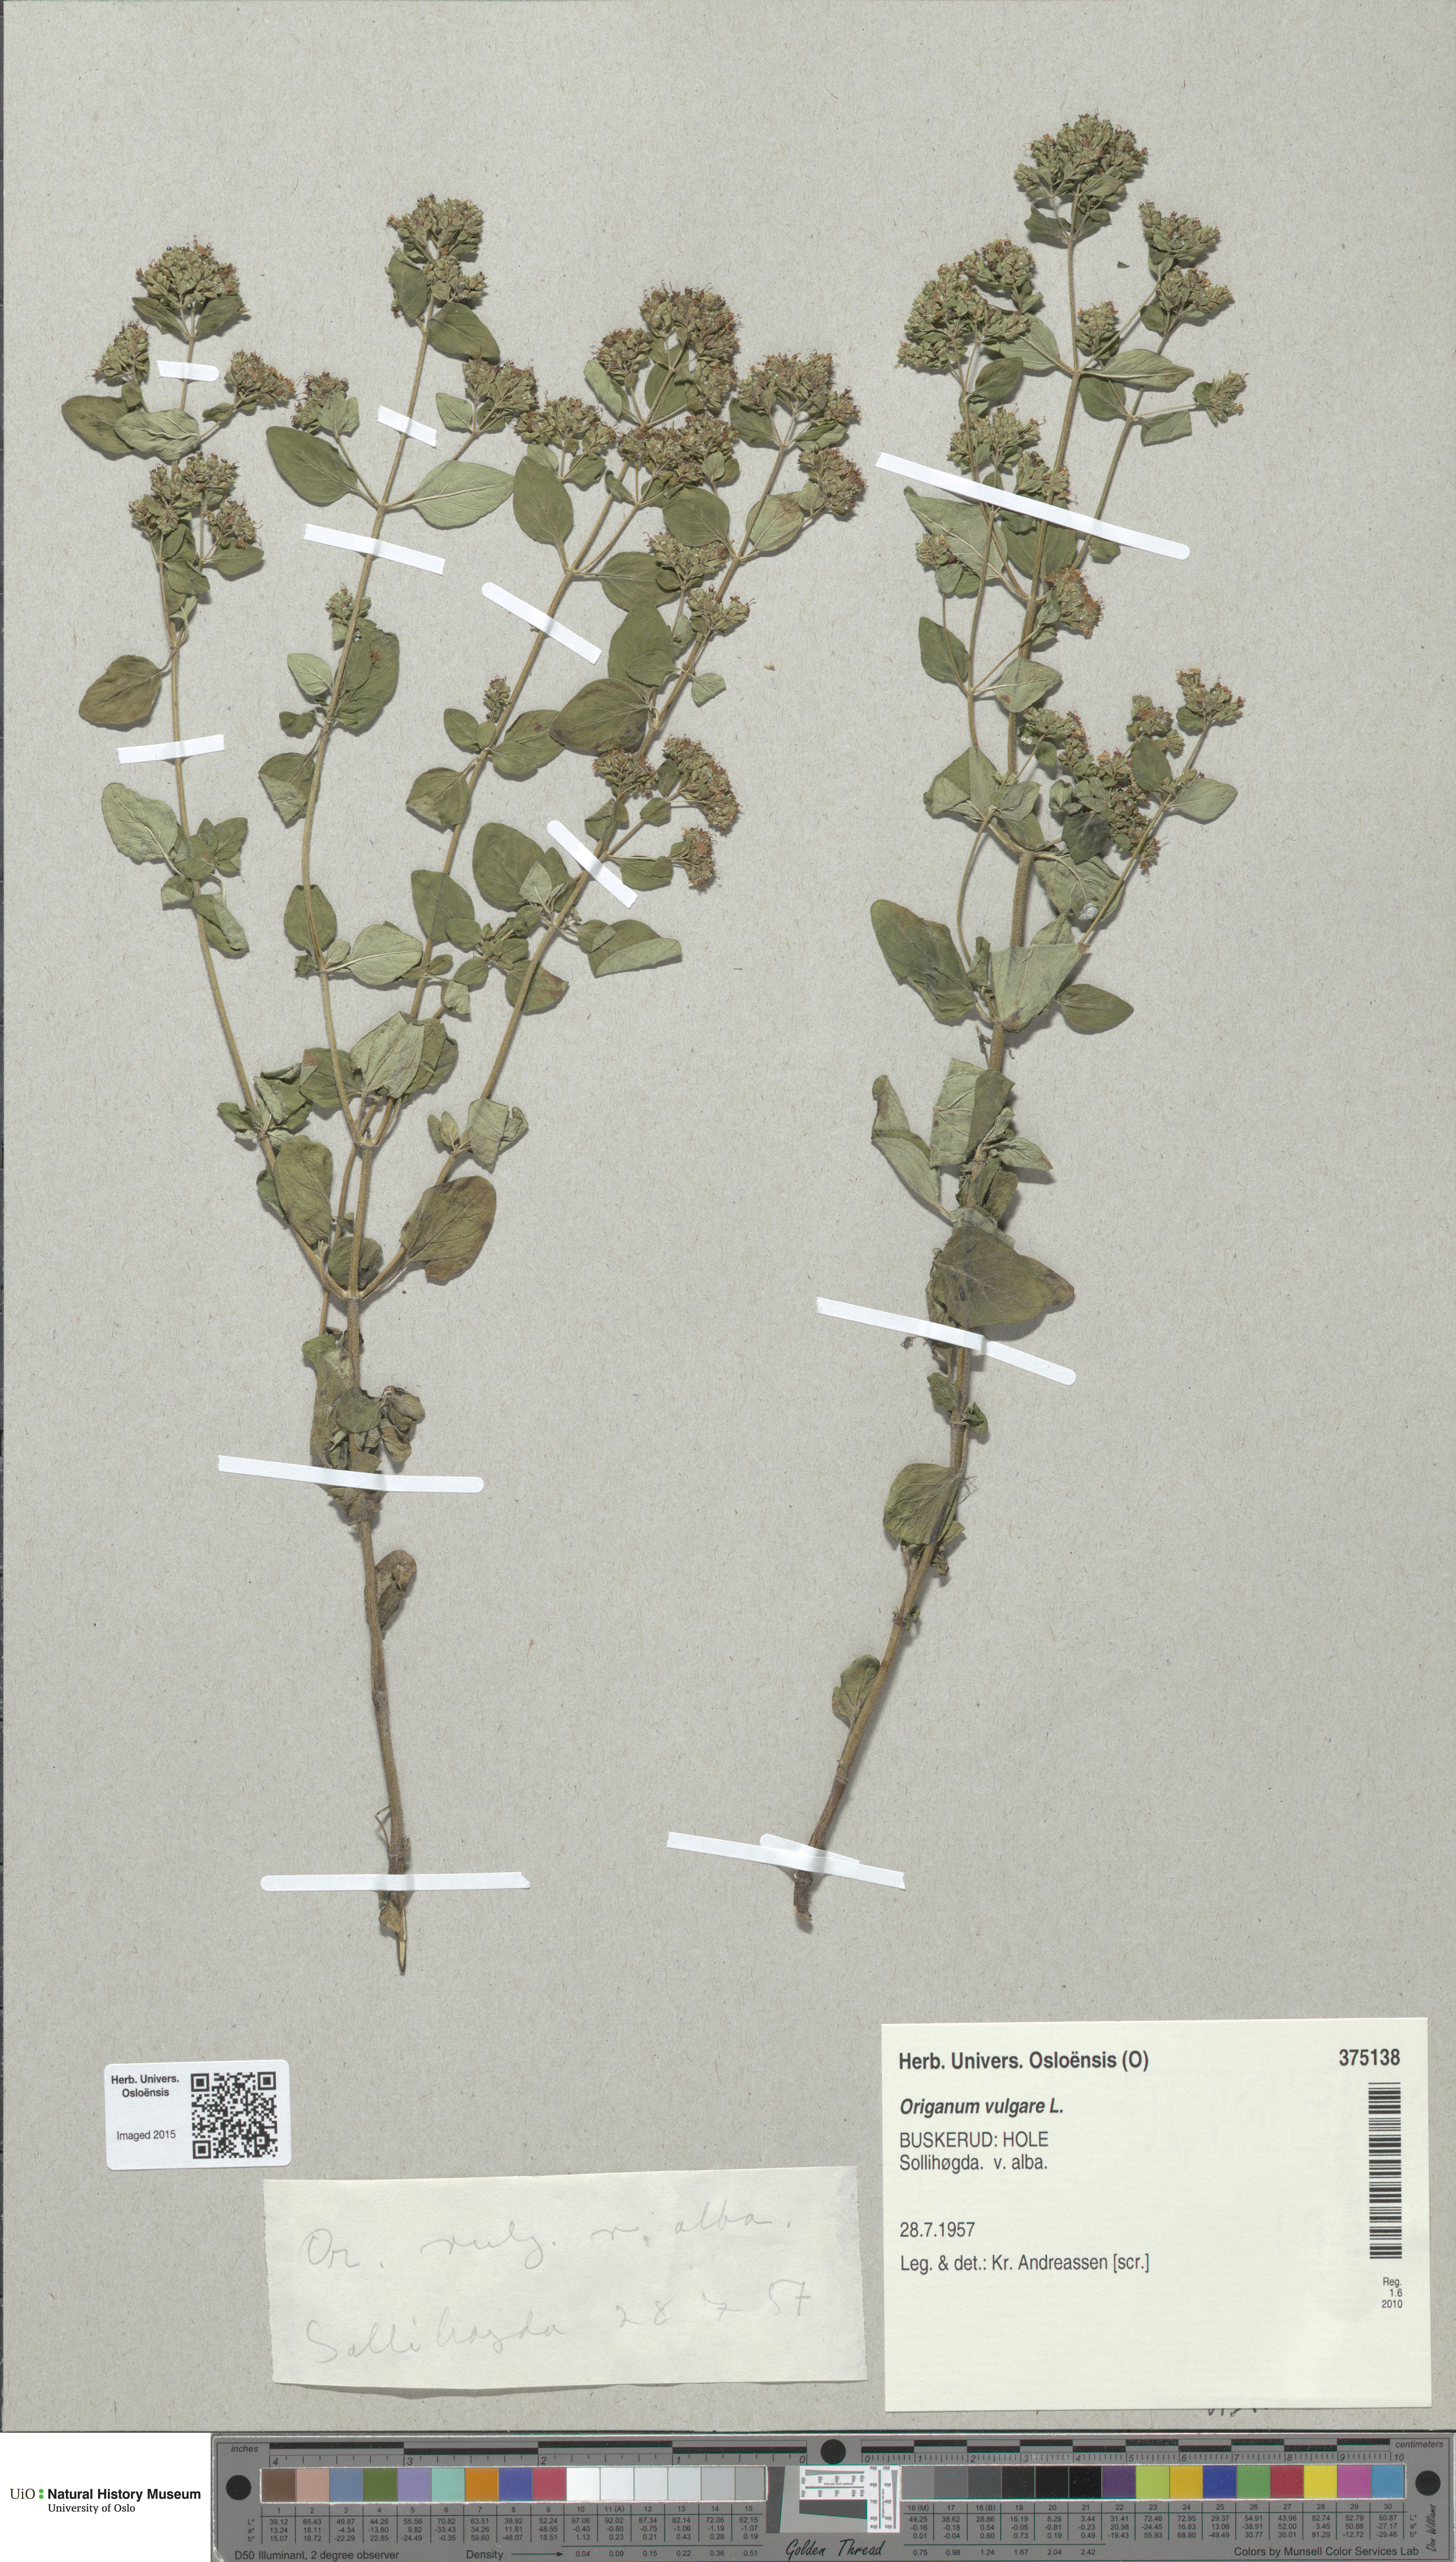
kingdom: Plantae
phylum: Tracheophyta
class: Magnoliopsida
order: Lamiales
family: Lamiaceae
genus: Origanum
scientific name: Origanum vulgare
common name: Wild marjoram
